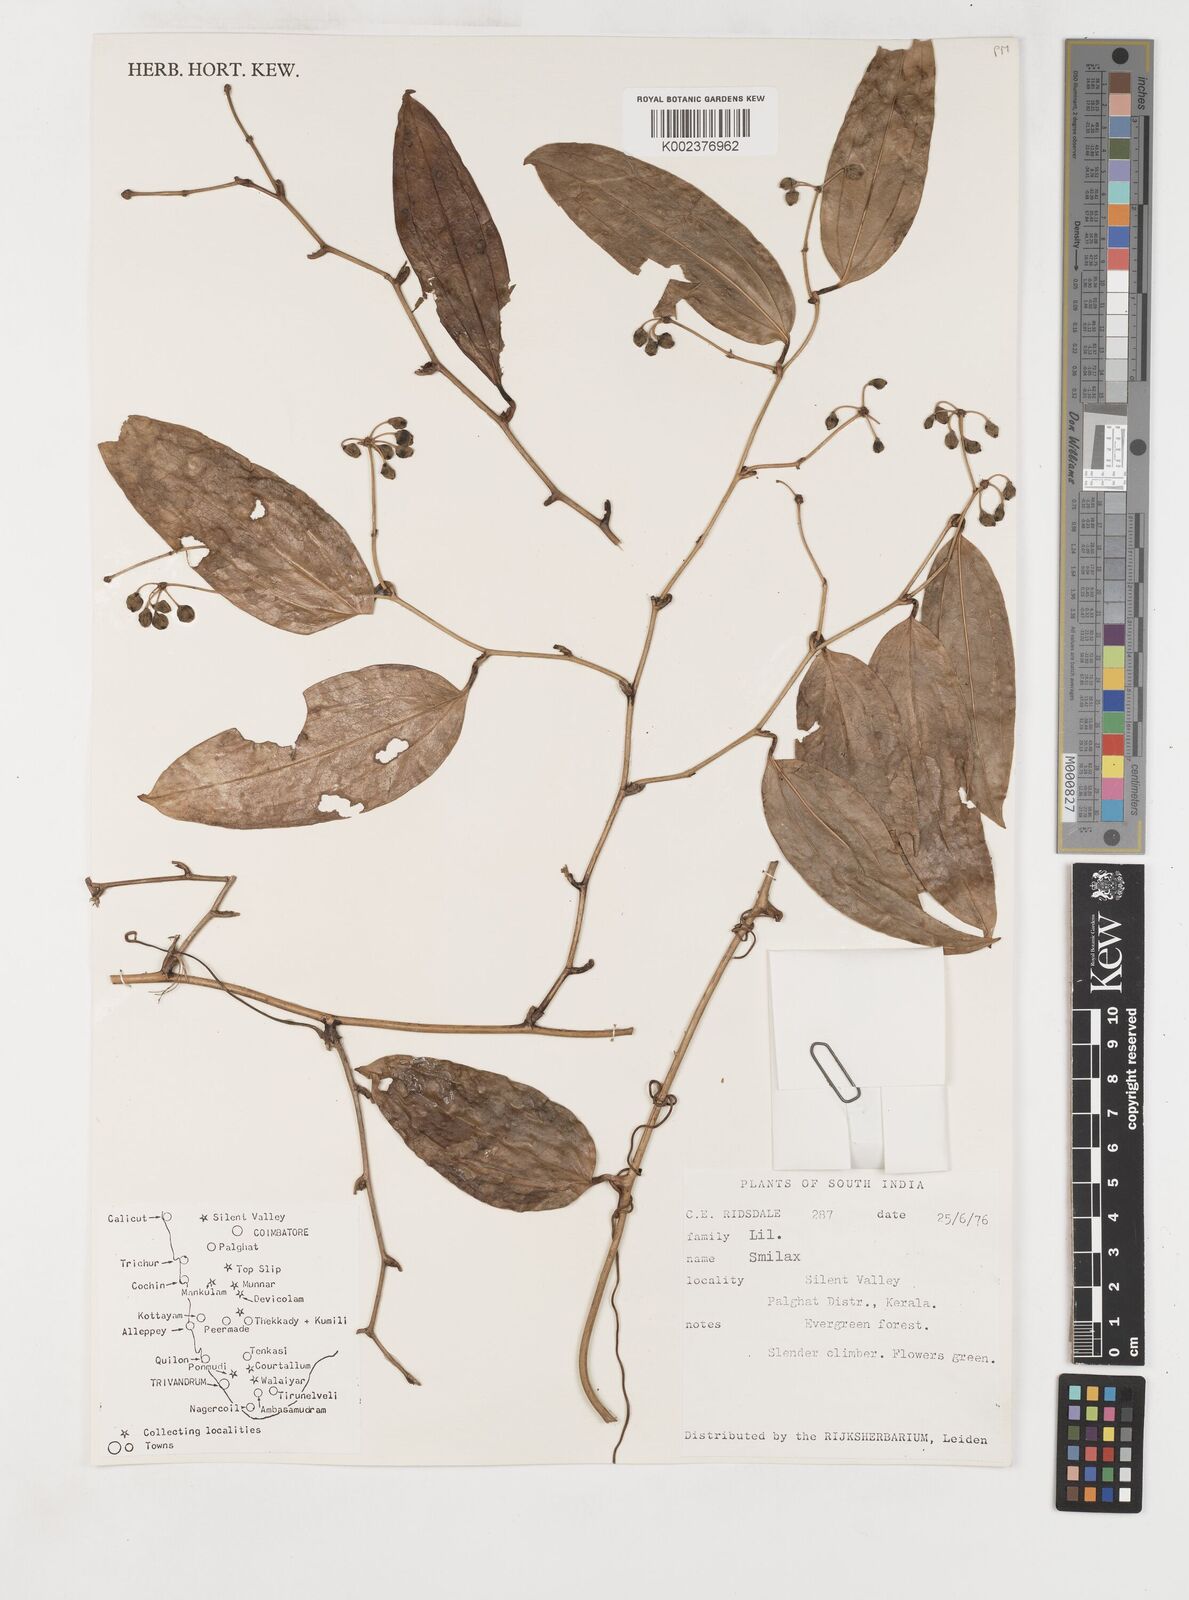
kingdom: Plantae
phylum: Tracheophyta
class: Liliopsida
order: Liliales
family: Smilacaceae
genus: Smilax
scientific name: Smilax
